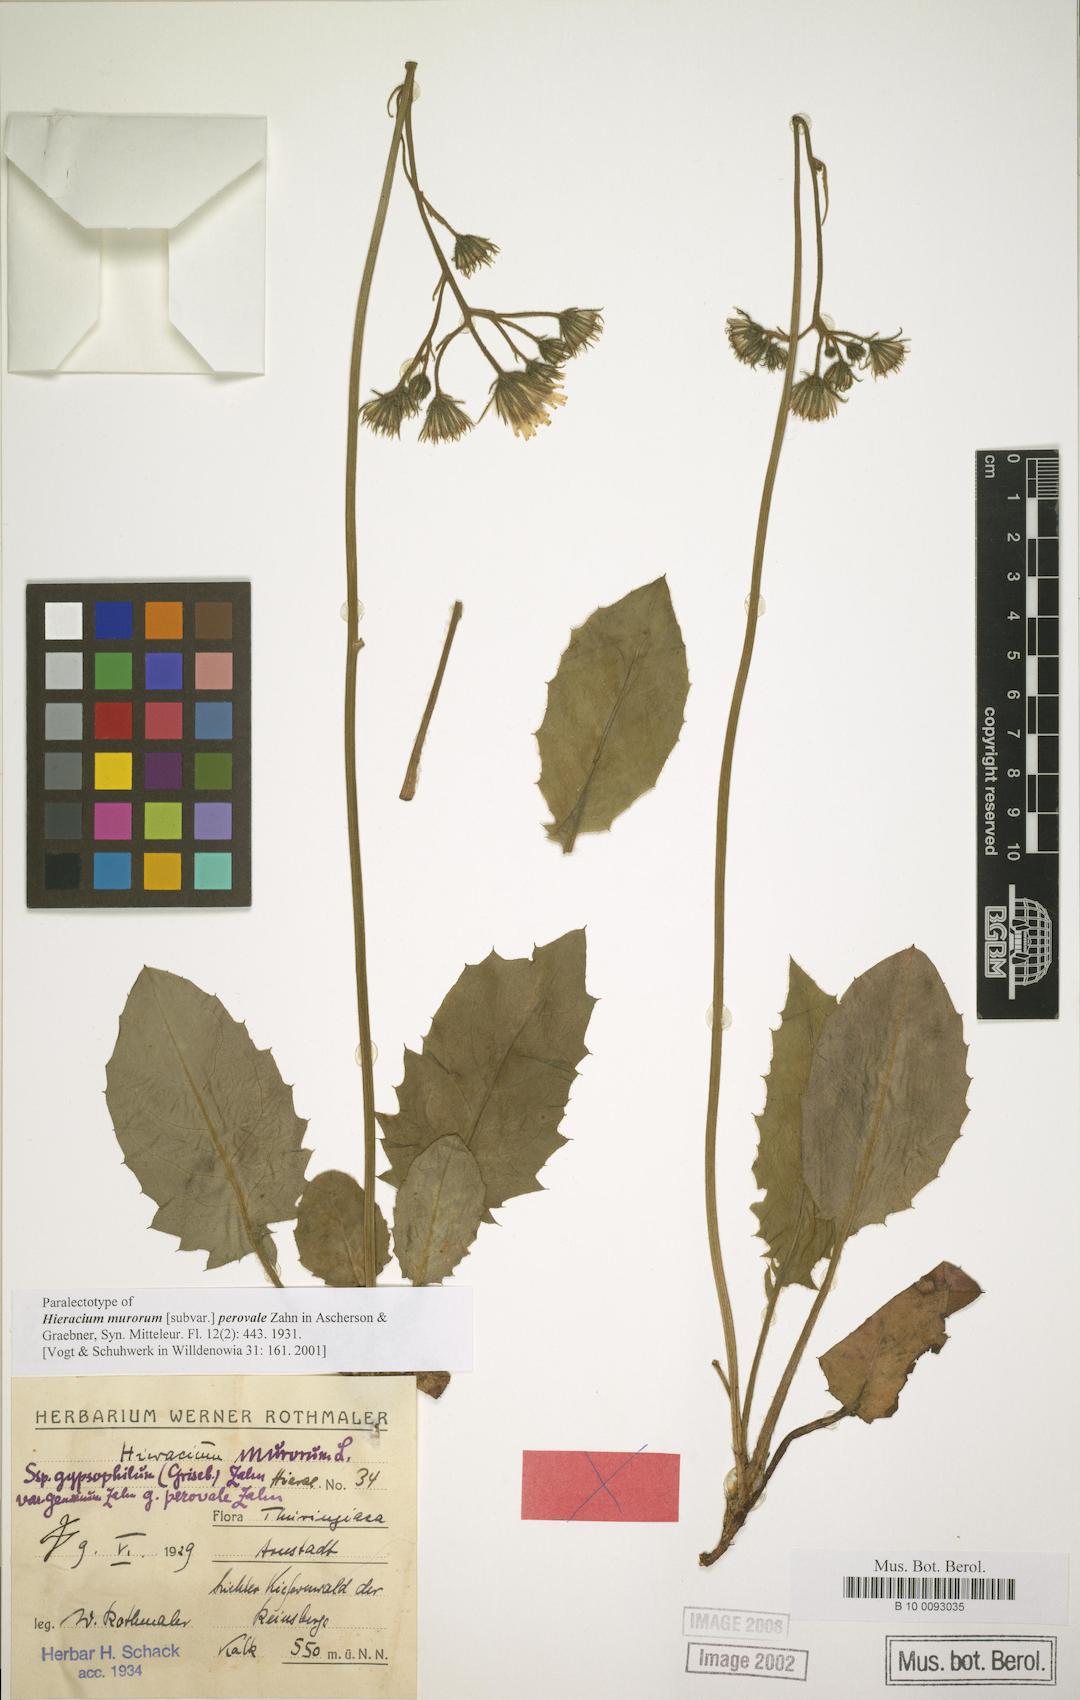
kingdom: Plantae
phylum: Tracheophyta
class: Magnoliopsida
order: Asterales
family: Asteraceae
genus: Hieracium
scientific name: Hieracium murorum
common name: Wall hawkweed
